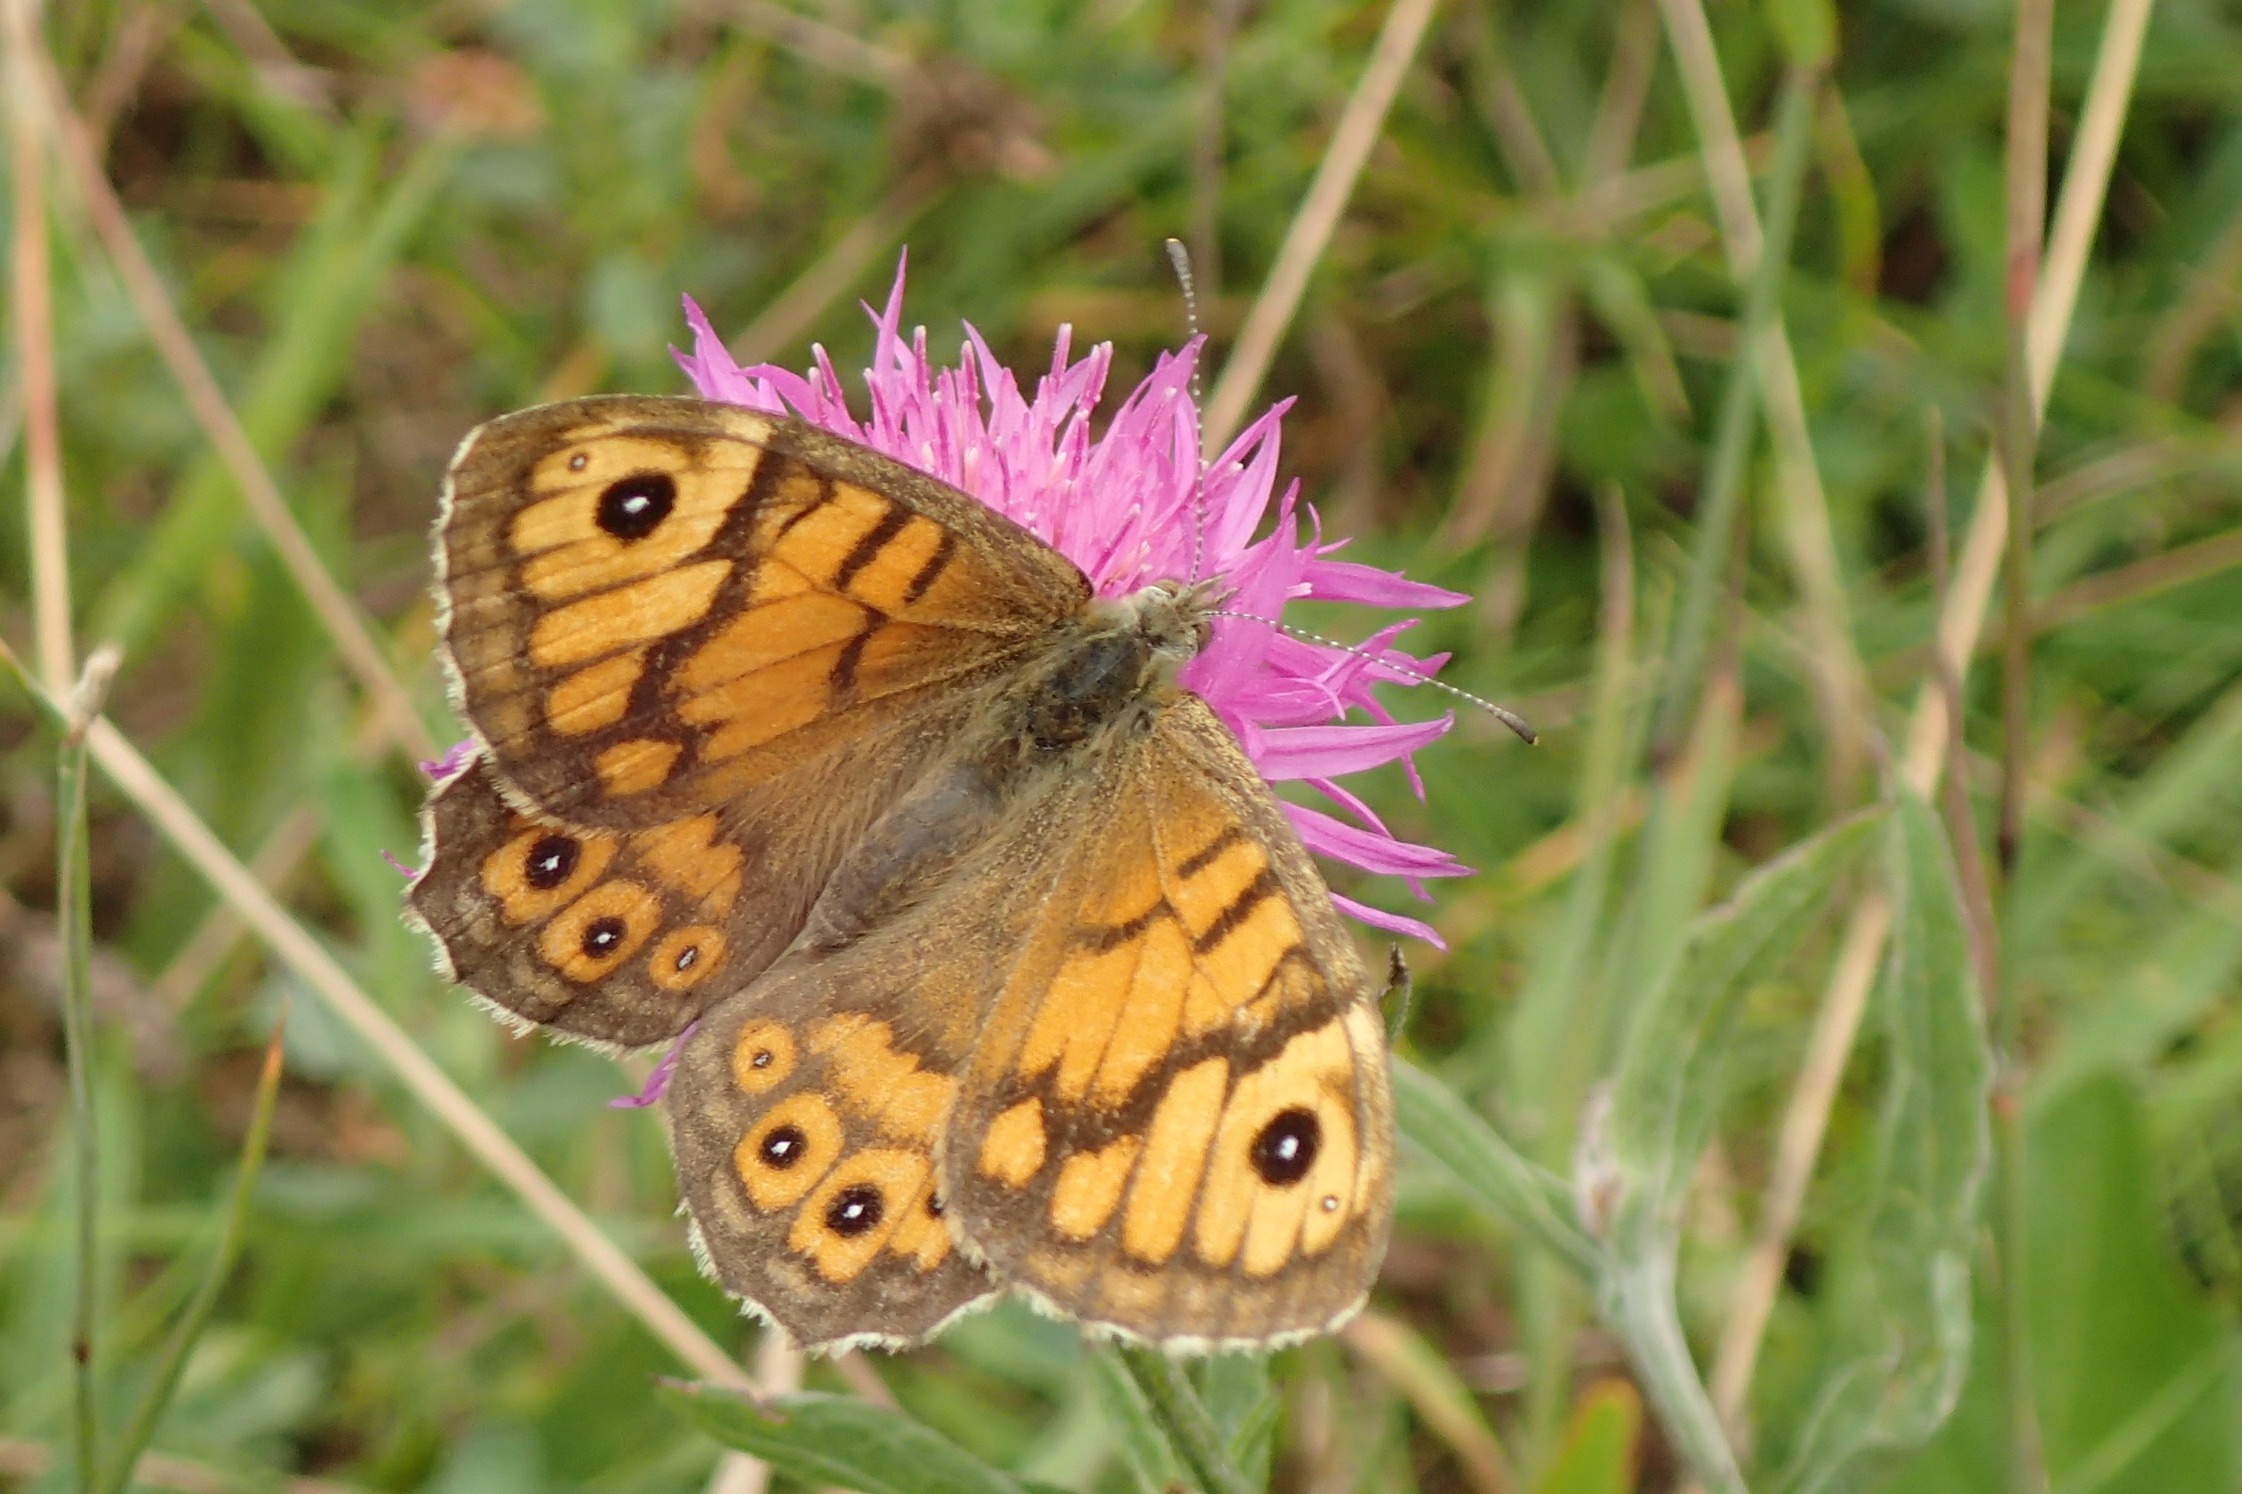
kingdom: Animalia
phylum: Arthropoda
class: Insecta
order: Lepidoptera
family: Nymphalidae
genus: Pararge
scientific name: Pararge Lasiommata megera
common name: Vejrandøje
